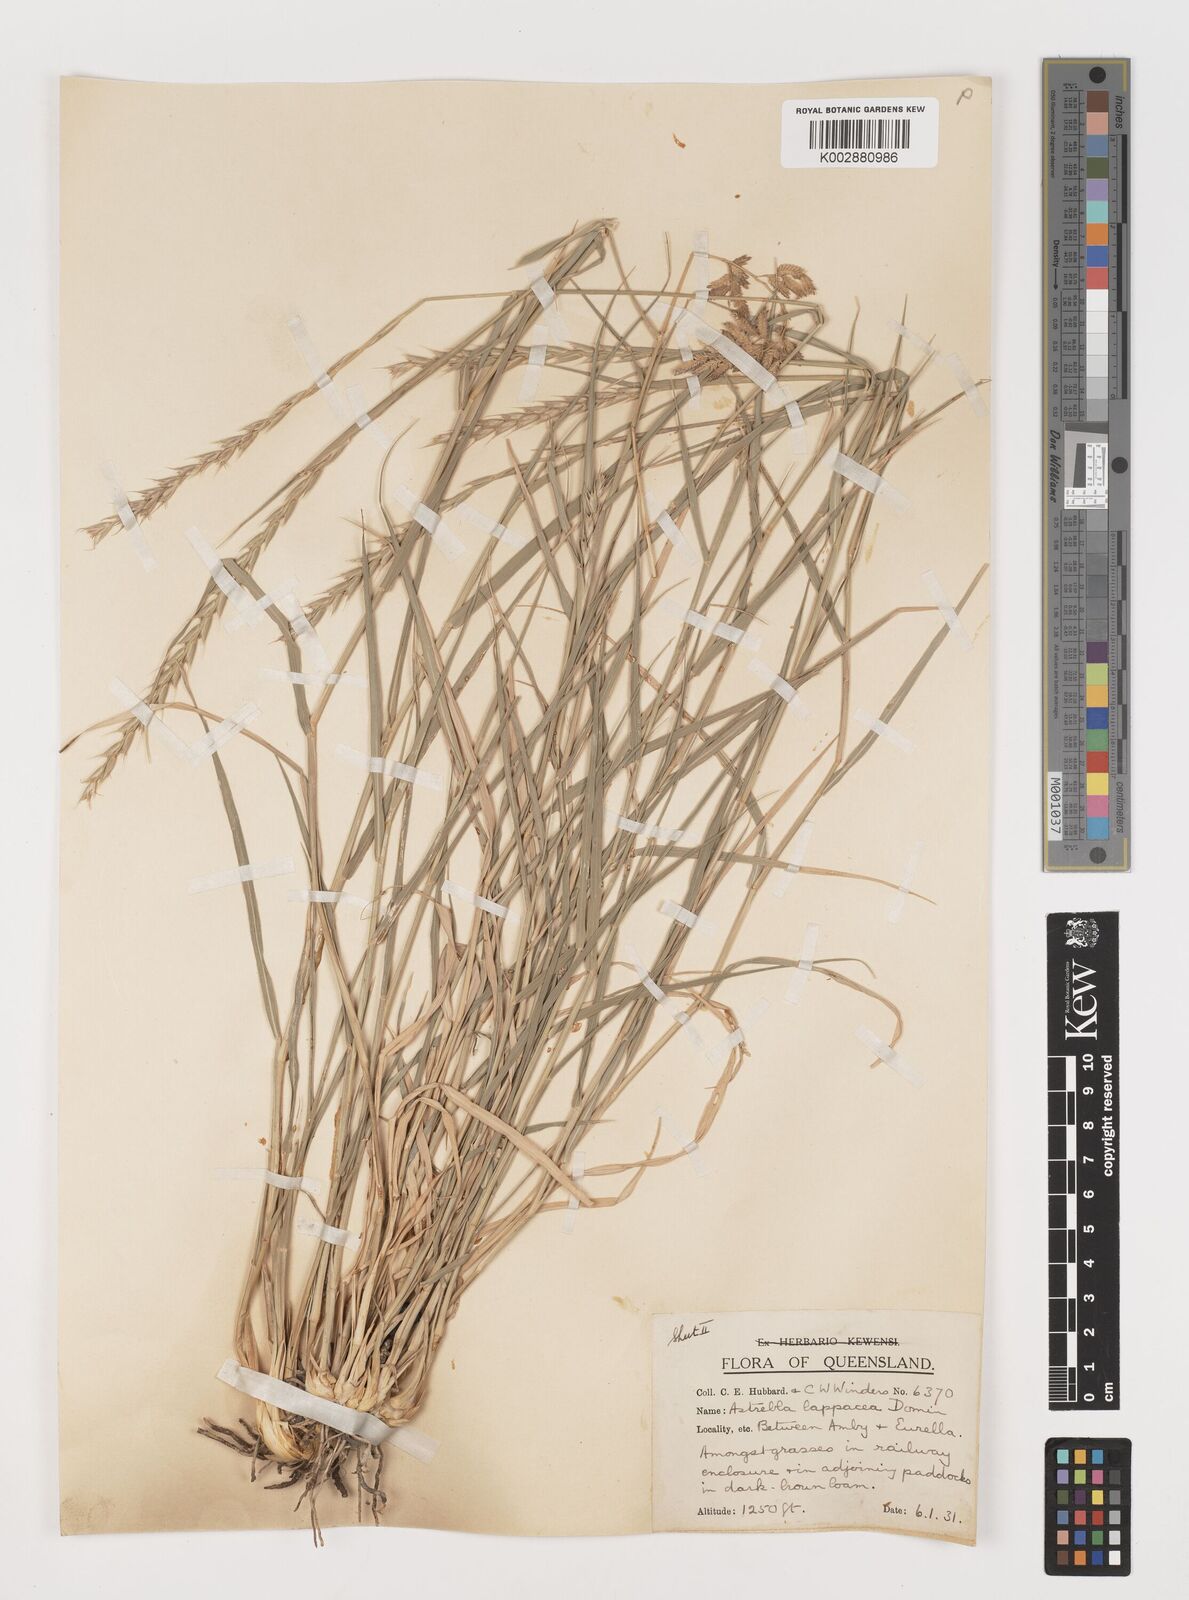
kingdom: Plantae
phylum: Tracheophyta
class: Liliopsida
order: Poales
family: Poaceae
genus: Astrebla
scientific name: Astrebla lappacea
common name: Curly mitchell grass
